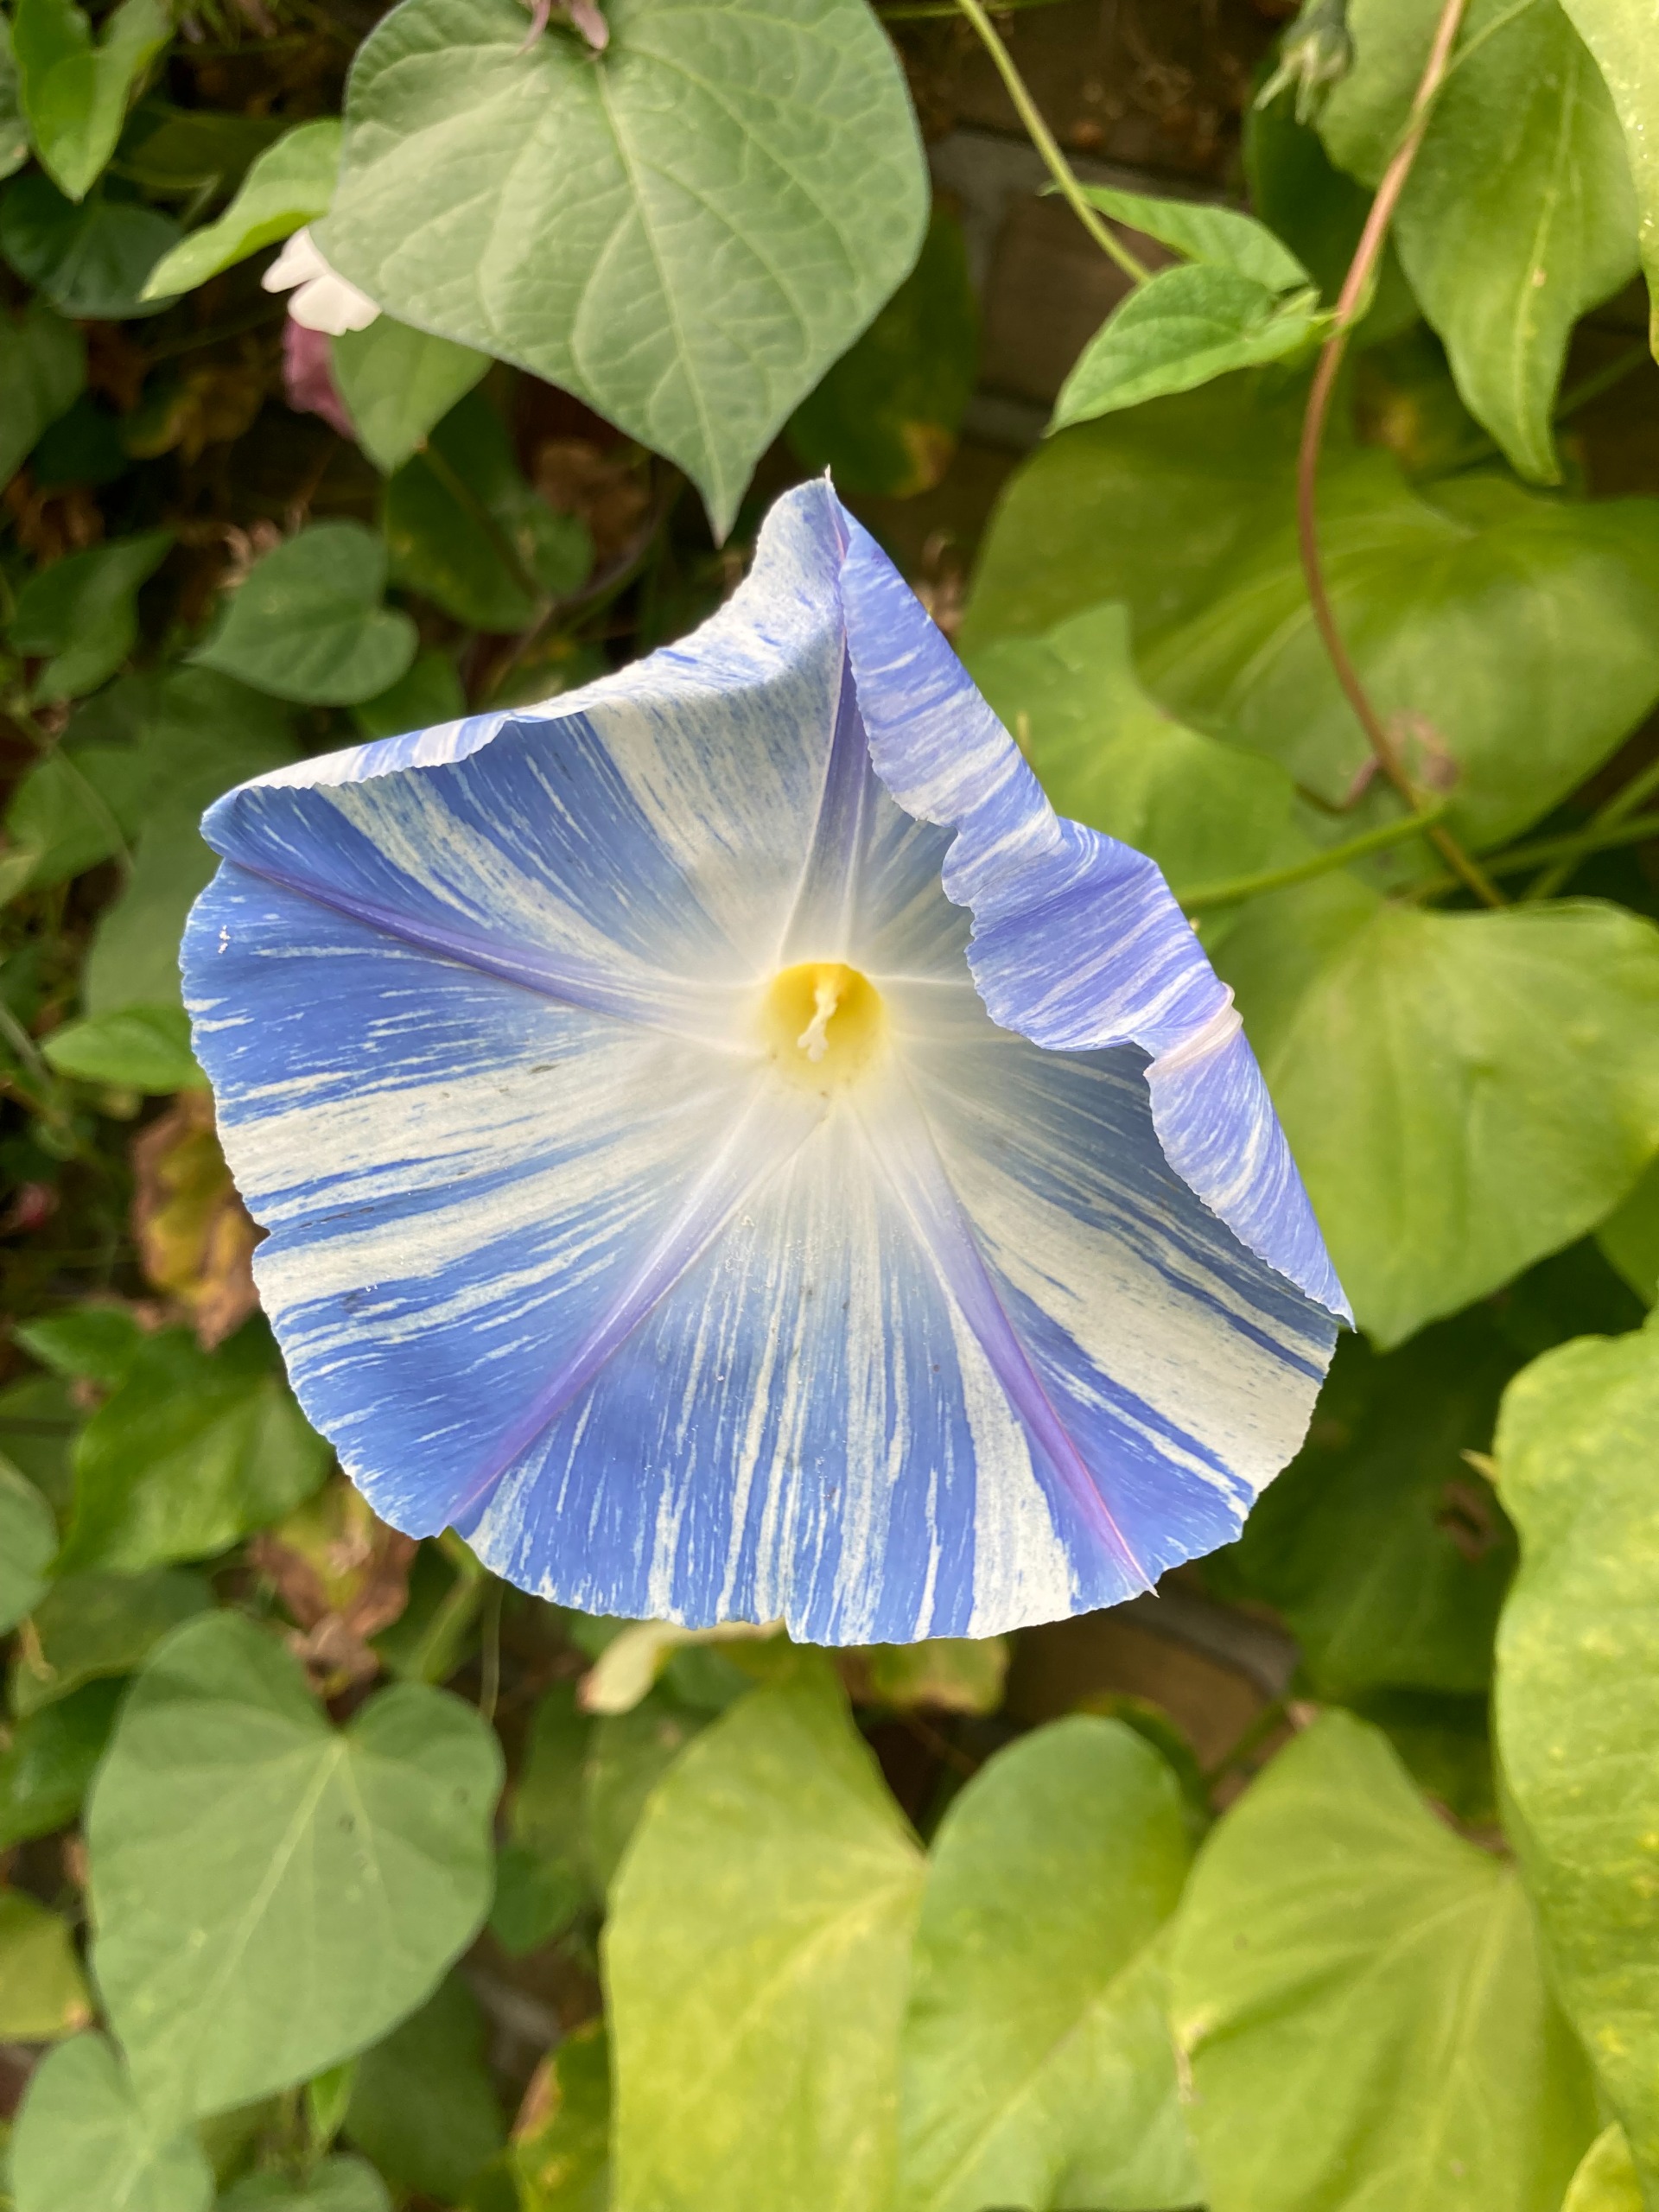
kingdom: Plantae
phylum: Tracheophyta
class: Magnoliopsida
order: Solanales
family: Convolvulaceae
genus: Ipomoea
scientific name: Ipomoea purpurea
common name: Rød tragtsnerle
